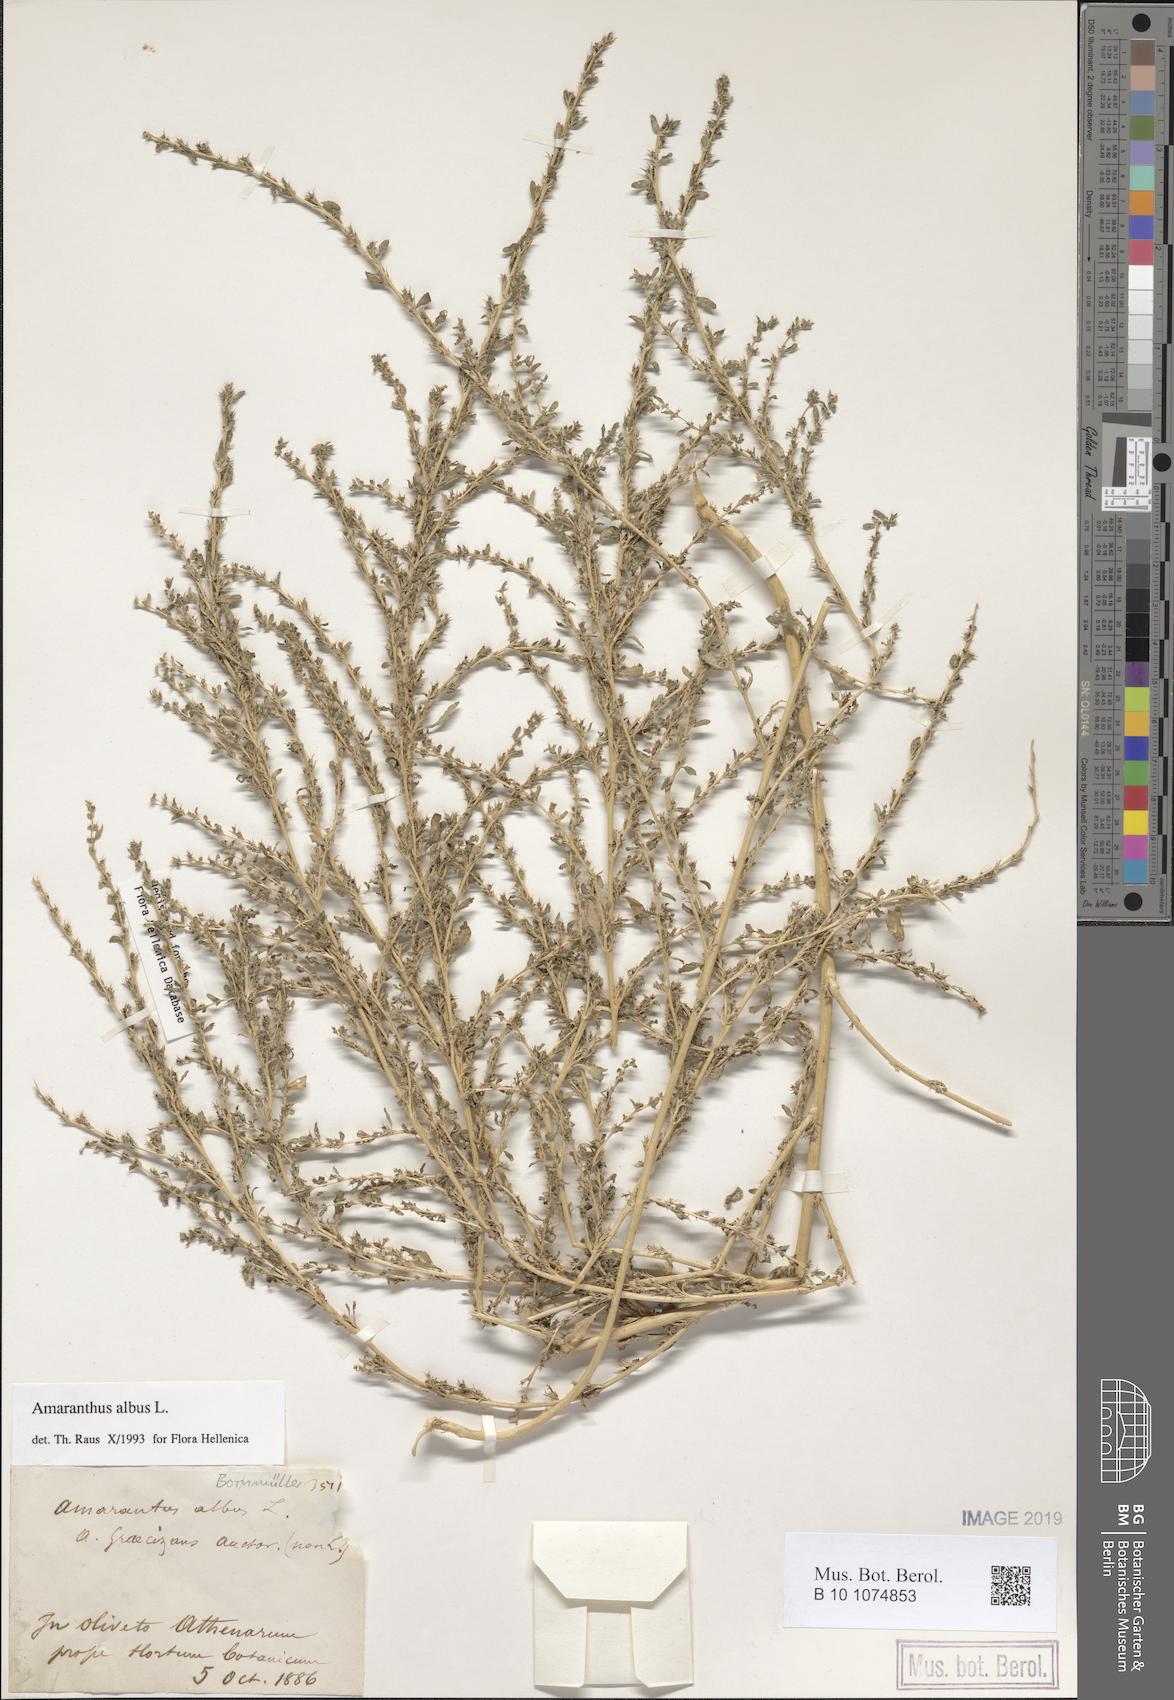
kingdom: Plantae
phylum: Tracheophyta
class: Magnoliopsida
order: Caryophyllales
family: Amaranthaceae
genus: Amaranthus
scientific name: Amaranthus albus
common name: White pigweed
